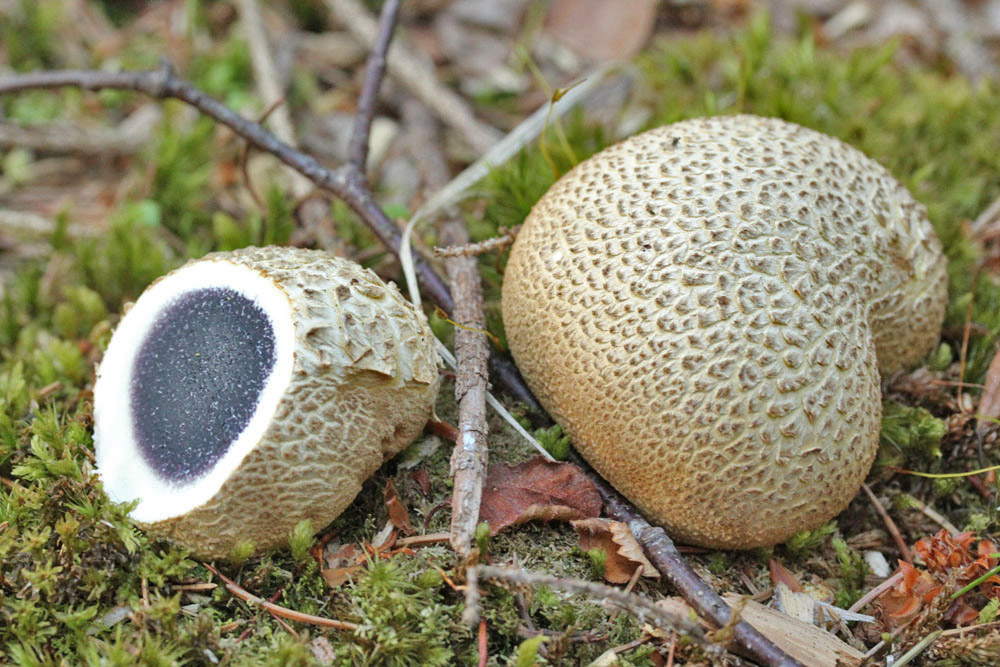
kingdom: Fungi
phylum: Basidiomycota
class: Agaricomycetes
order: Boletales
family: Sclerodermataceae
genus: Scleroderma
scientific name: Scleroderma citrinum
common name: almindelig bruskbold
